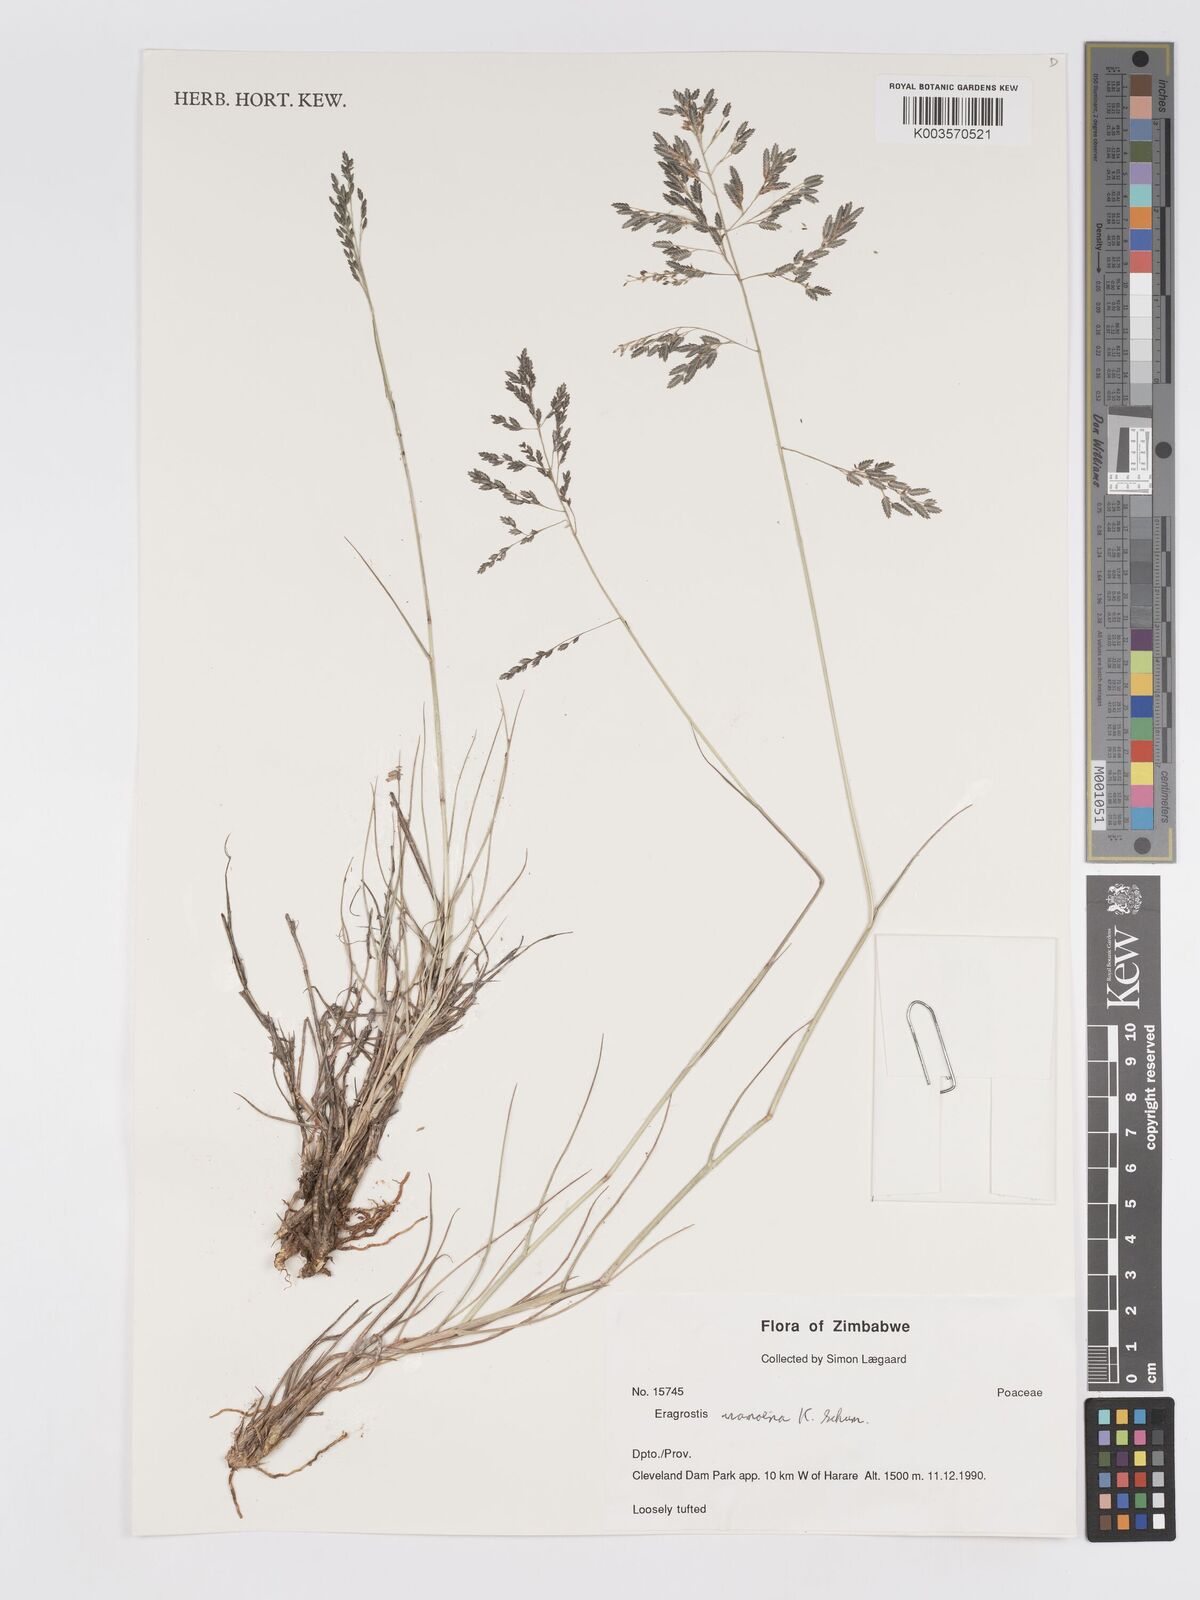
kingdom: Plantae
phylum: Tracheophyta
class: Liliopsida
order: Poales
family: Poaceae
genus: Eragrostis
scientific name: Eragrostis inamoena
